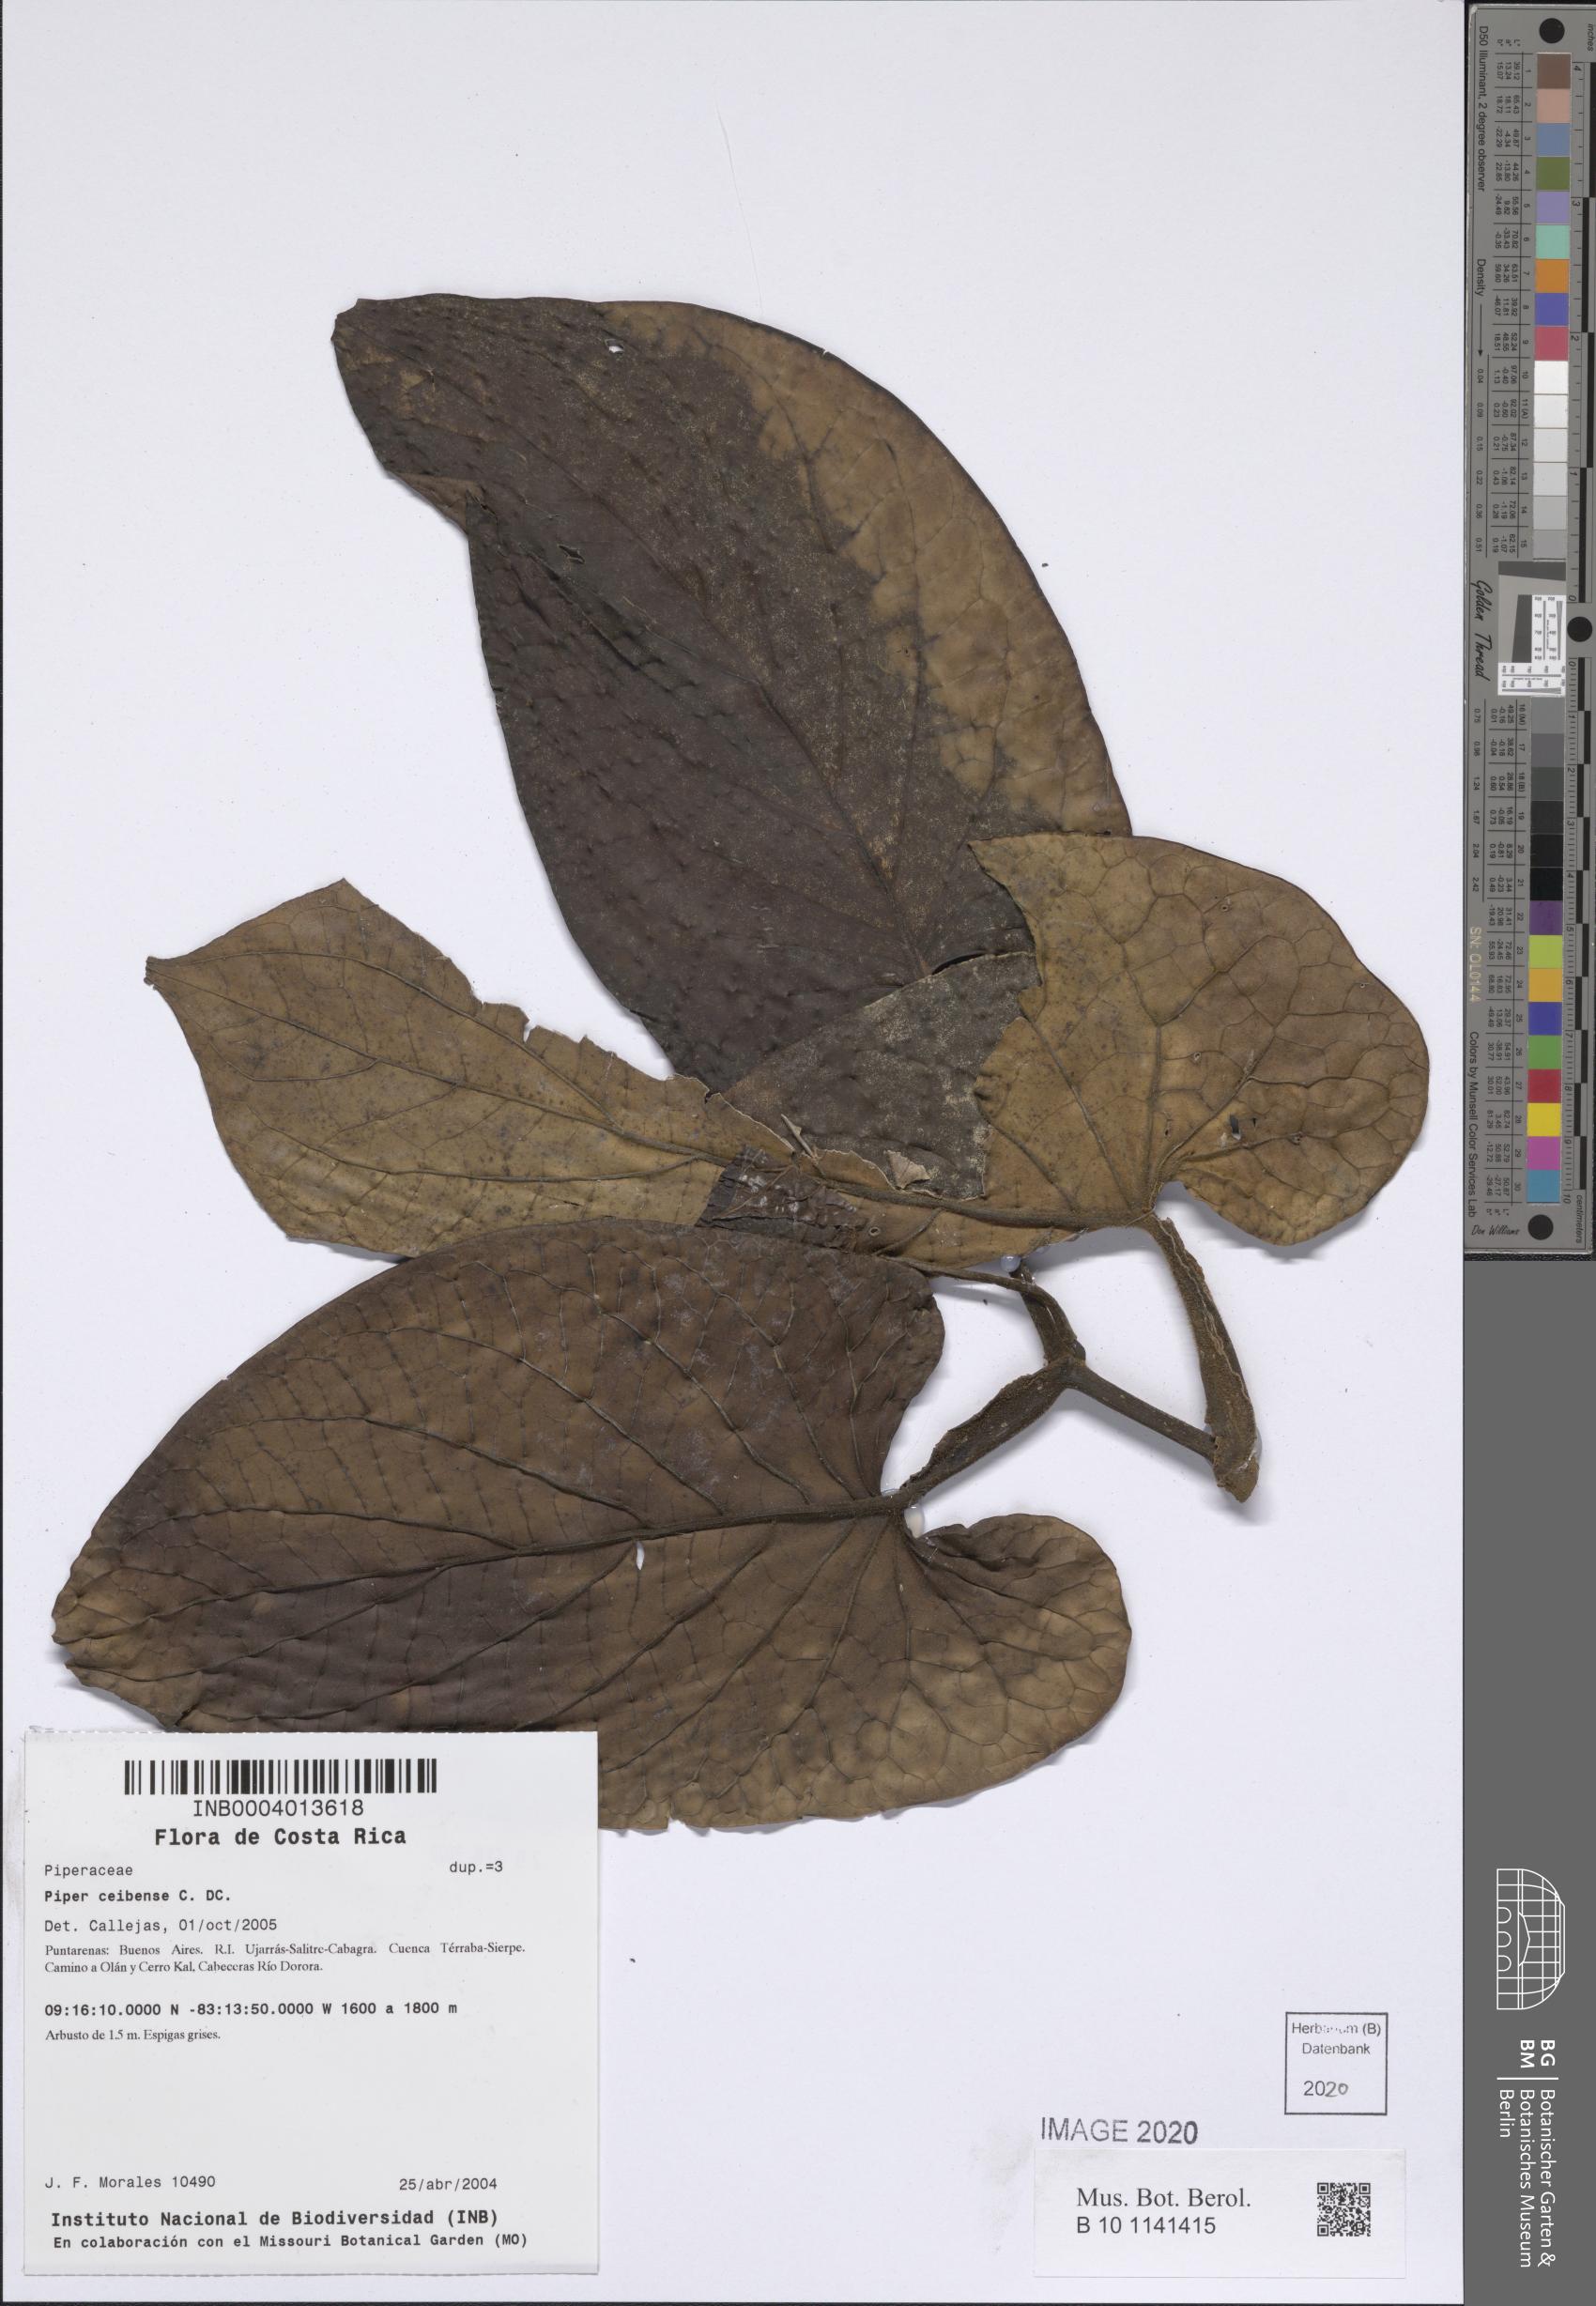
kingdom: Plantae
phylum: Tracheophyta
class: Magnoliopsida
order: Piperales
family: Piperaceae
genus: Piper
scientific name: Piper ceibense
